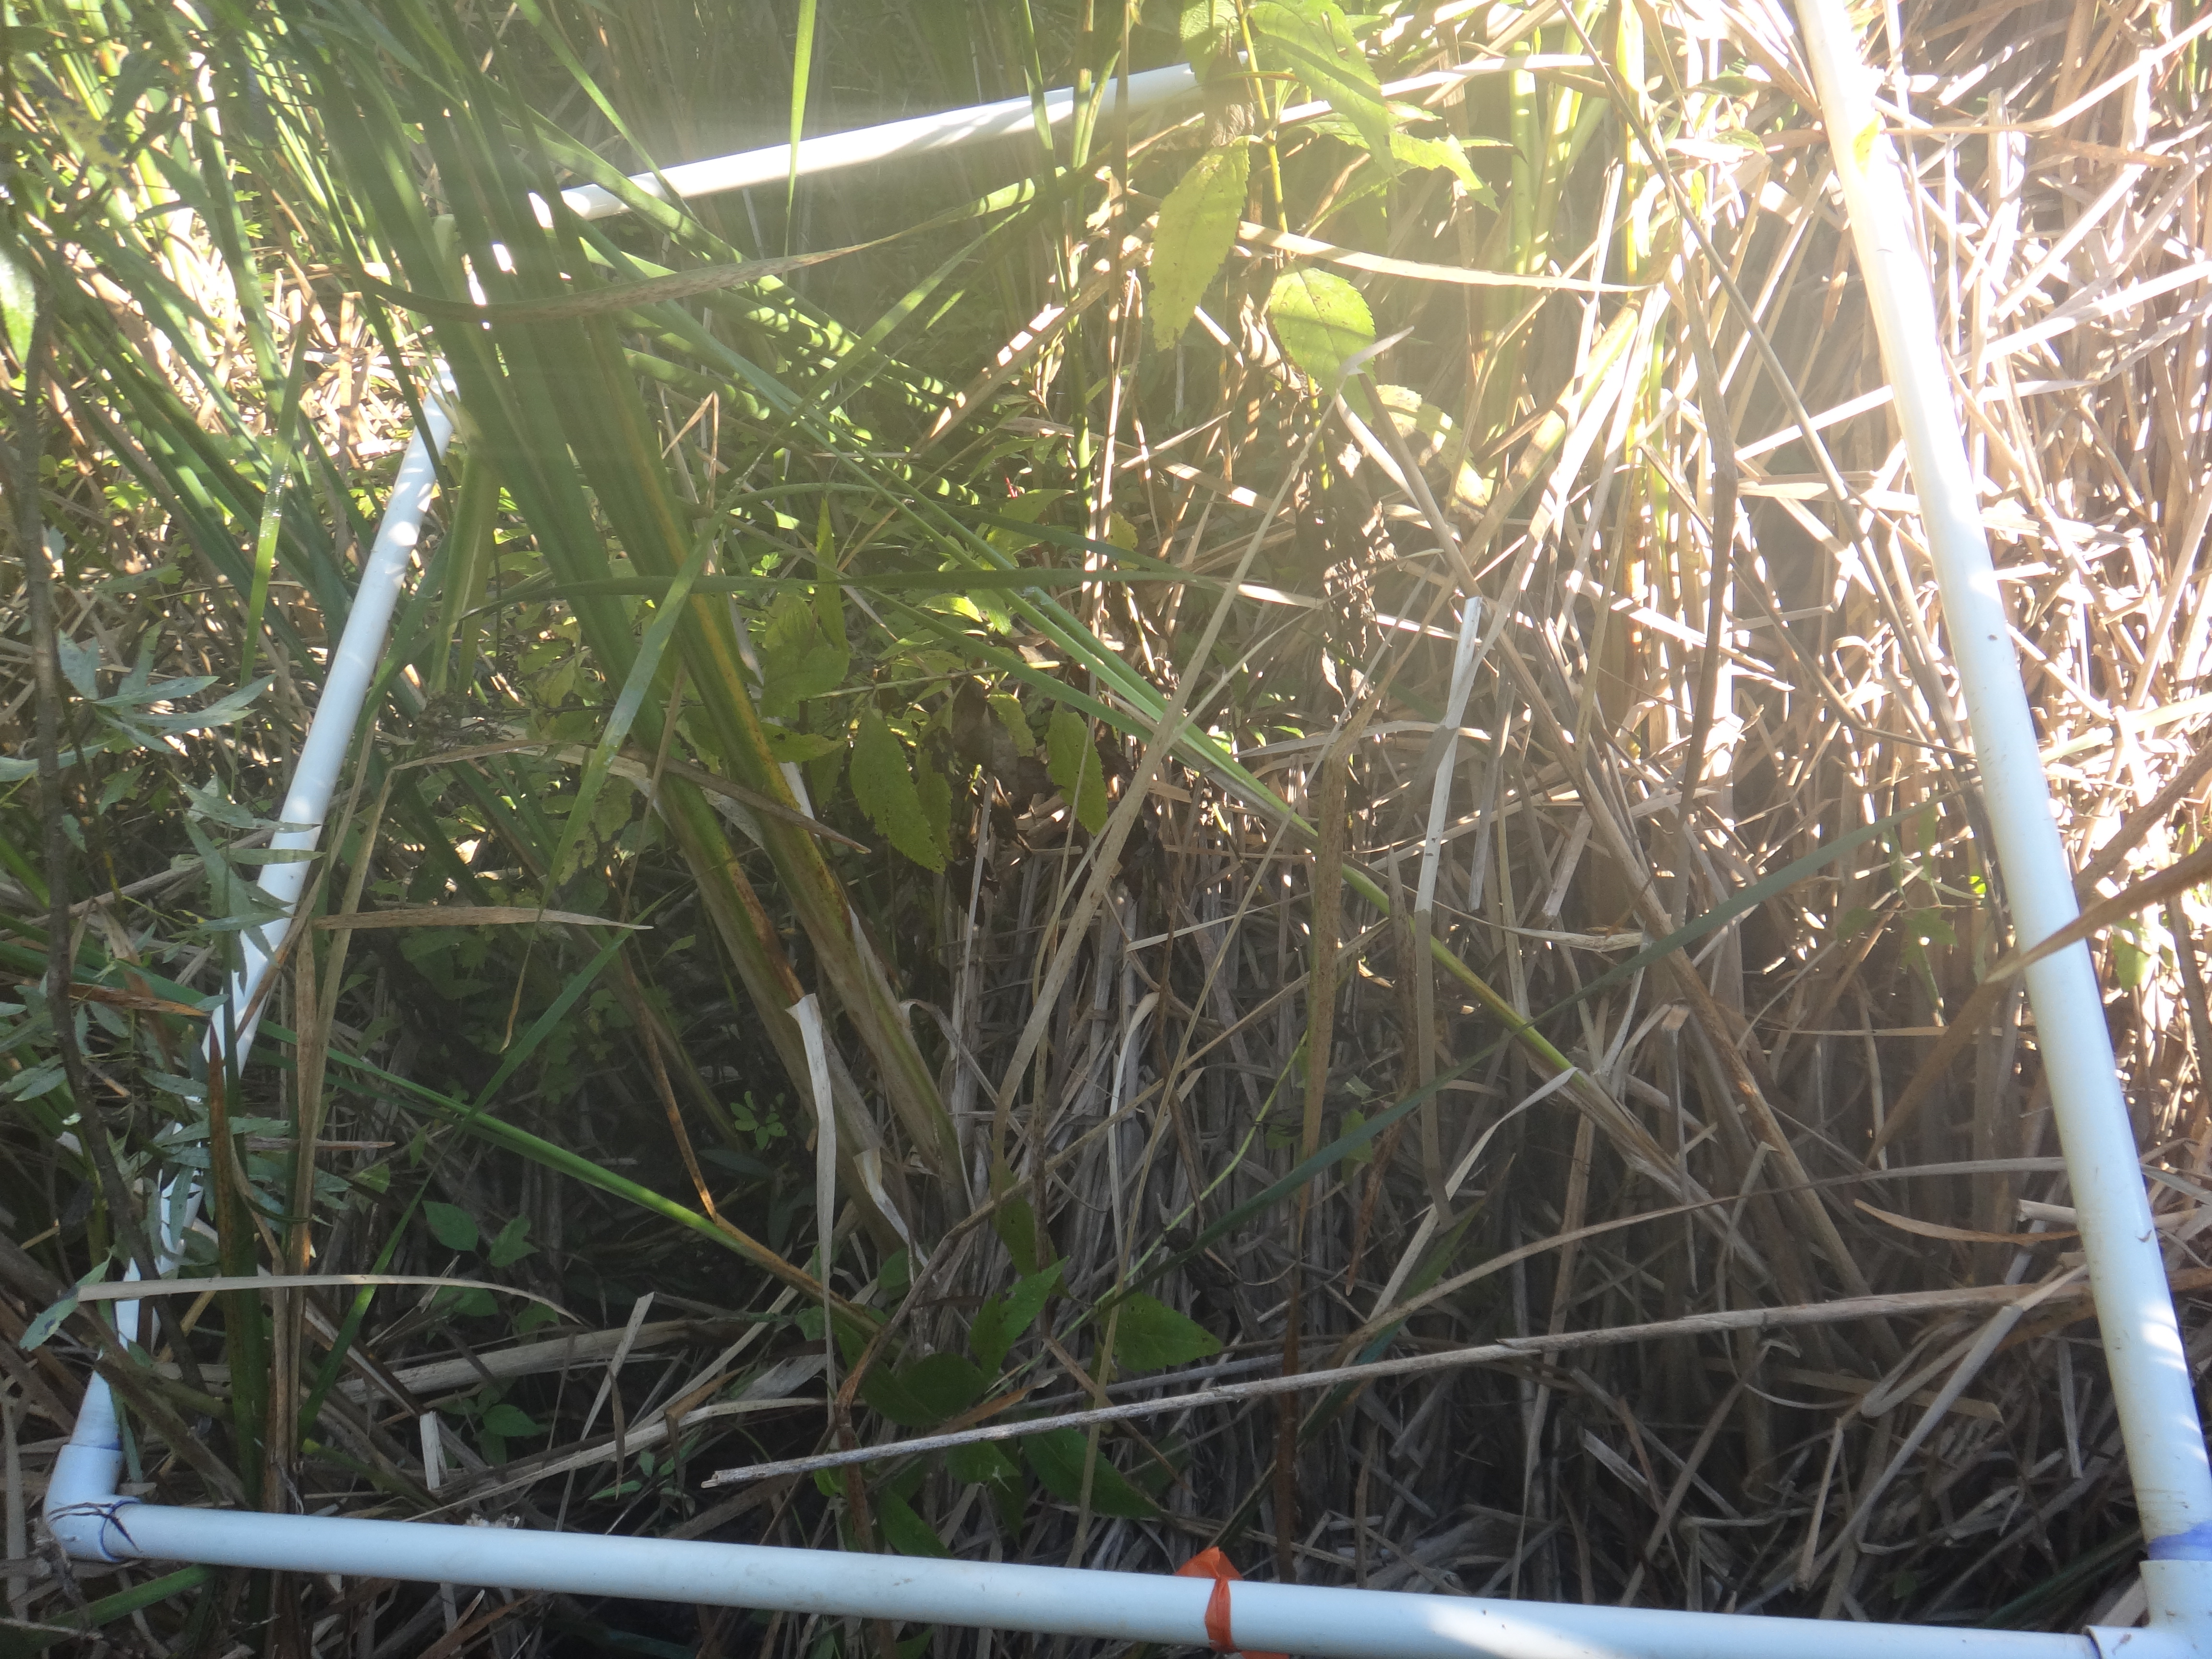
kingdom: Plantae
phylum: Tracheophyta
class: Magnoliopsida
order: Ericales
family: Balsaminaceae
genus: Impatiens
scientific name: Impatiens capensis
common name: Orange balsam
